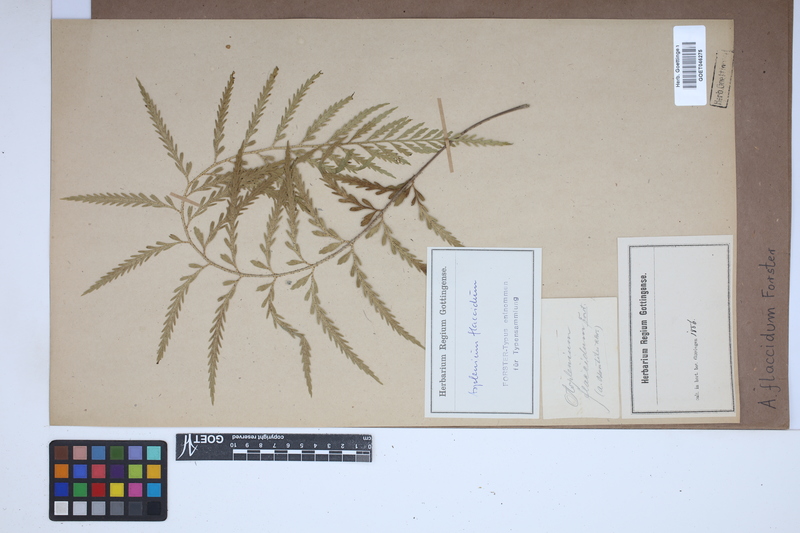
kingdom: Plantae
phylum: Tracheophyta
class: Polypodiopsida
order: Polypodiales
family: Aspleniaceae
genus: Asplenium
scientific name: Asplenium flaccidum
